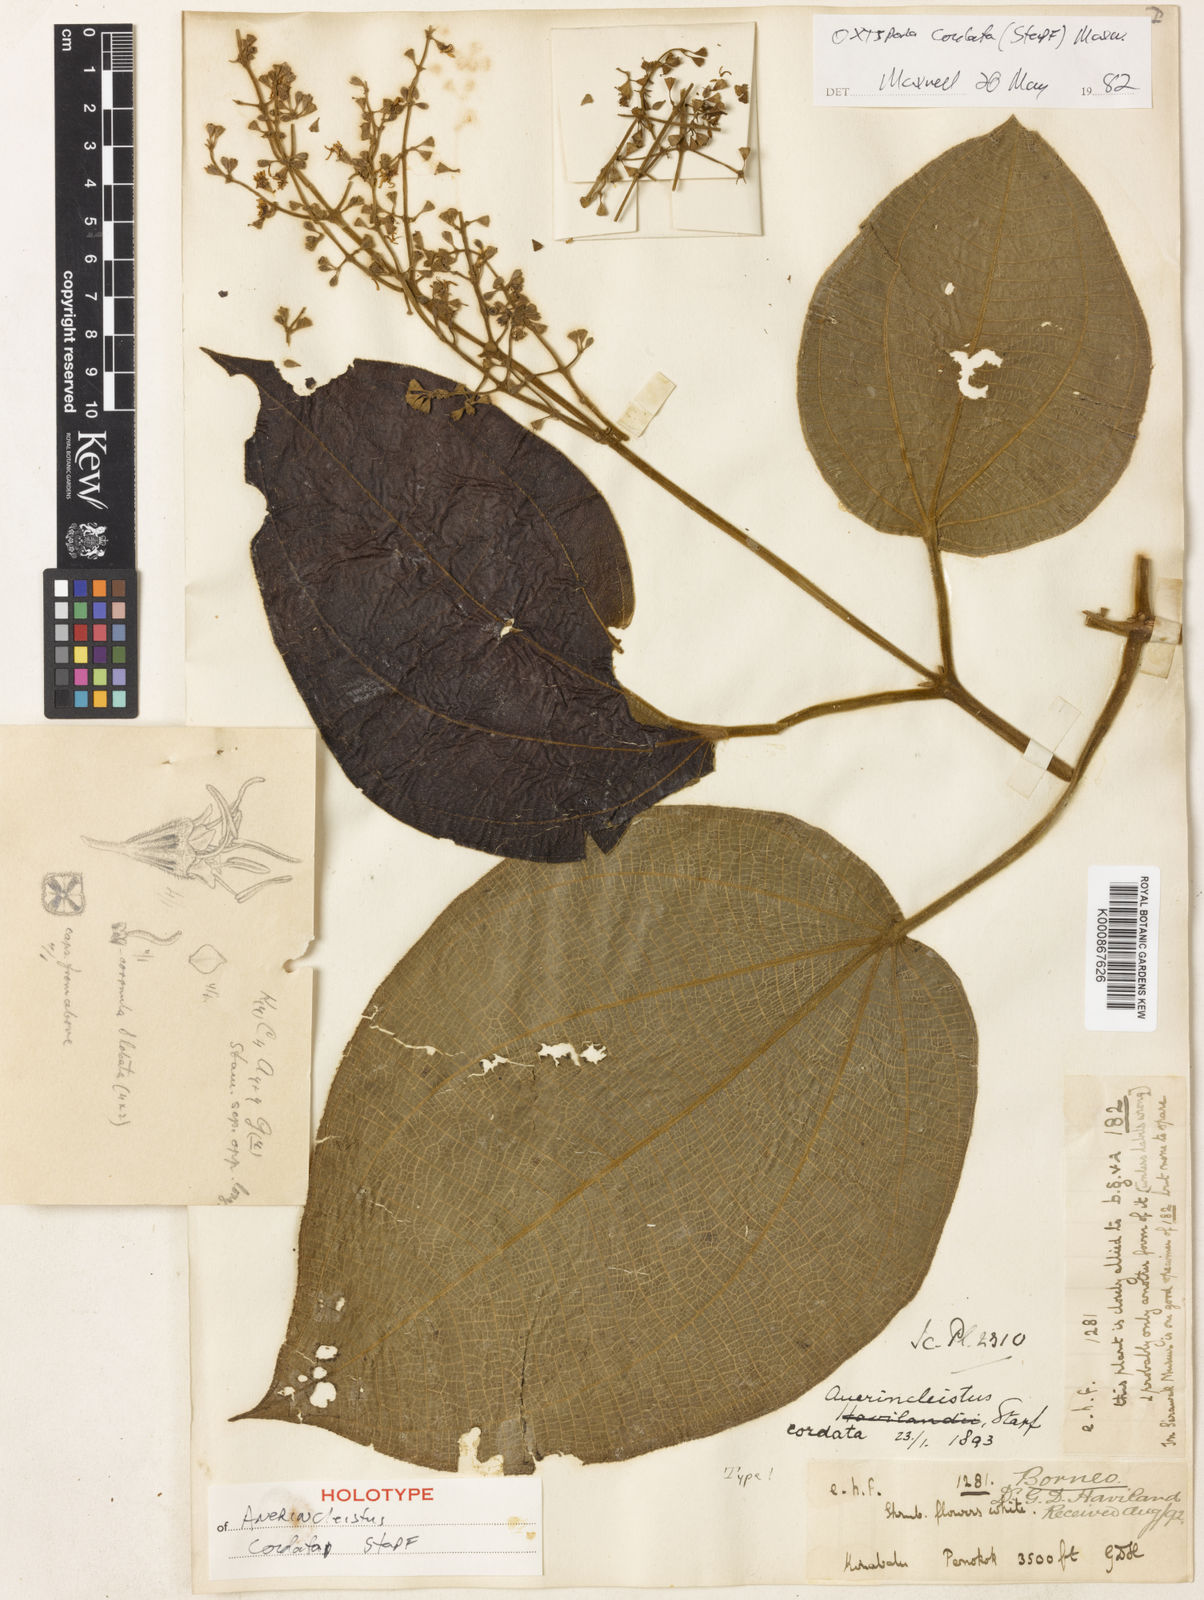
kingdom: Plantae
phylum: Tracheophyta
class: Magnoliopsida
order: Myrtales
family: Melastomataceae
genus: Anerincleistus
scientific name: Anerincleistus cordatus
